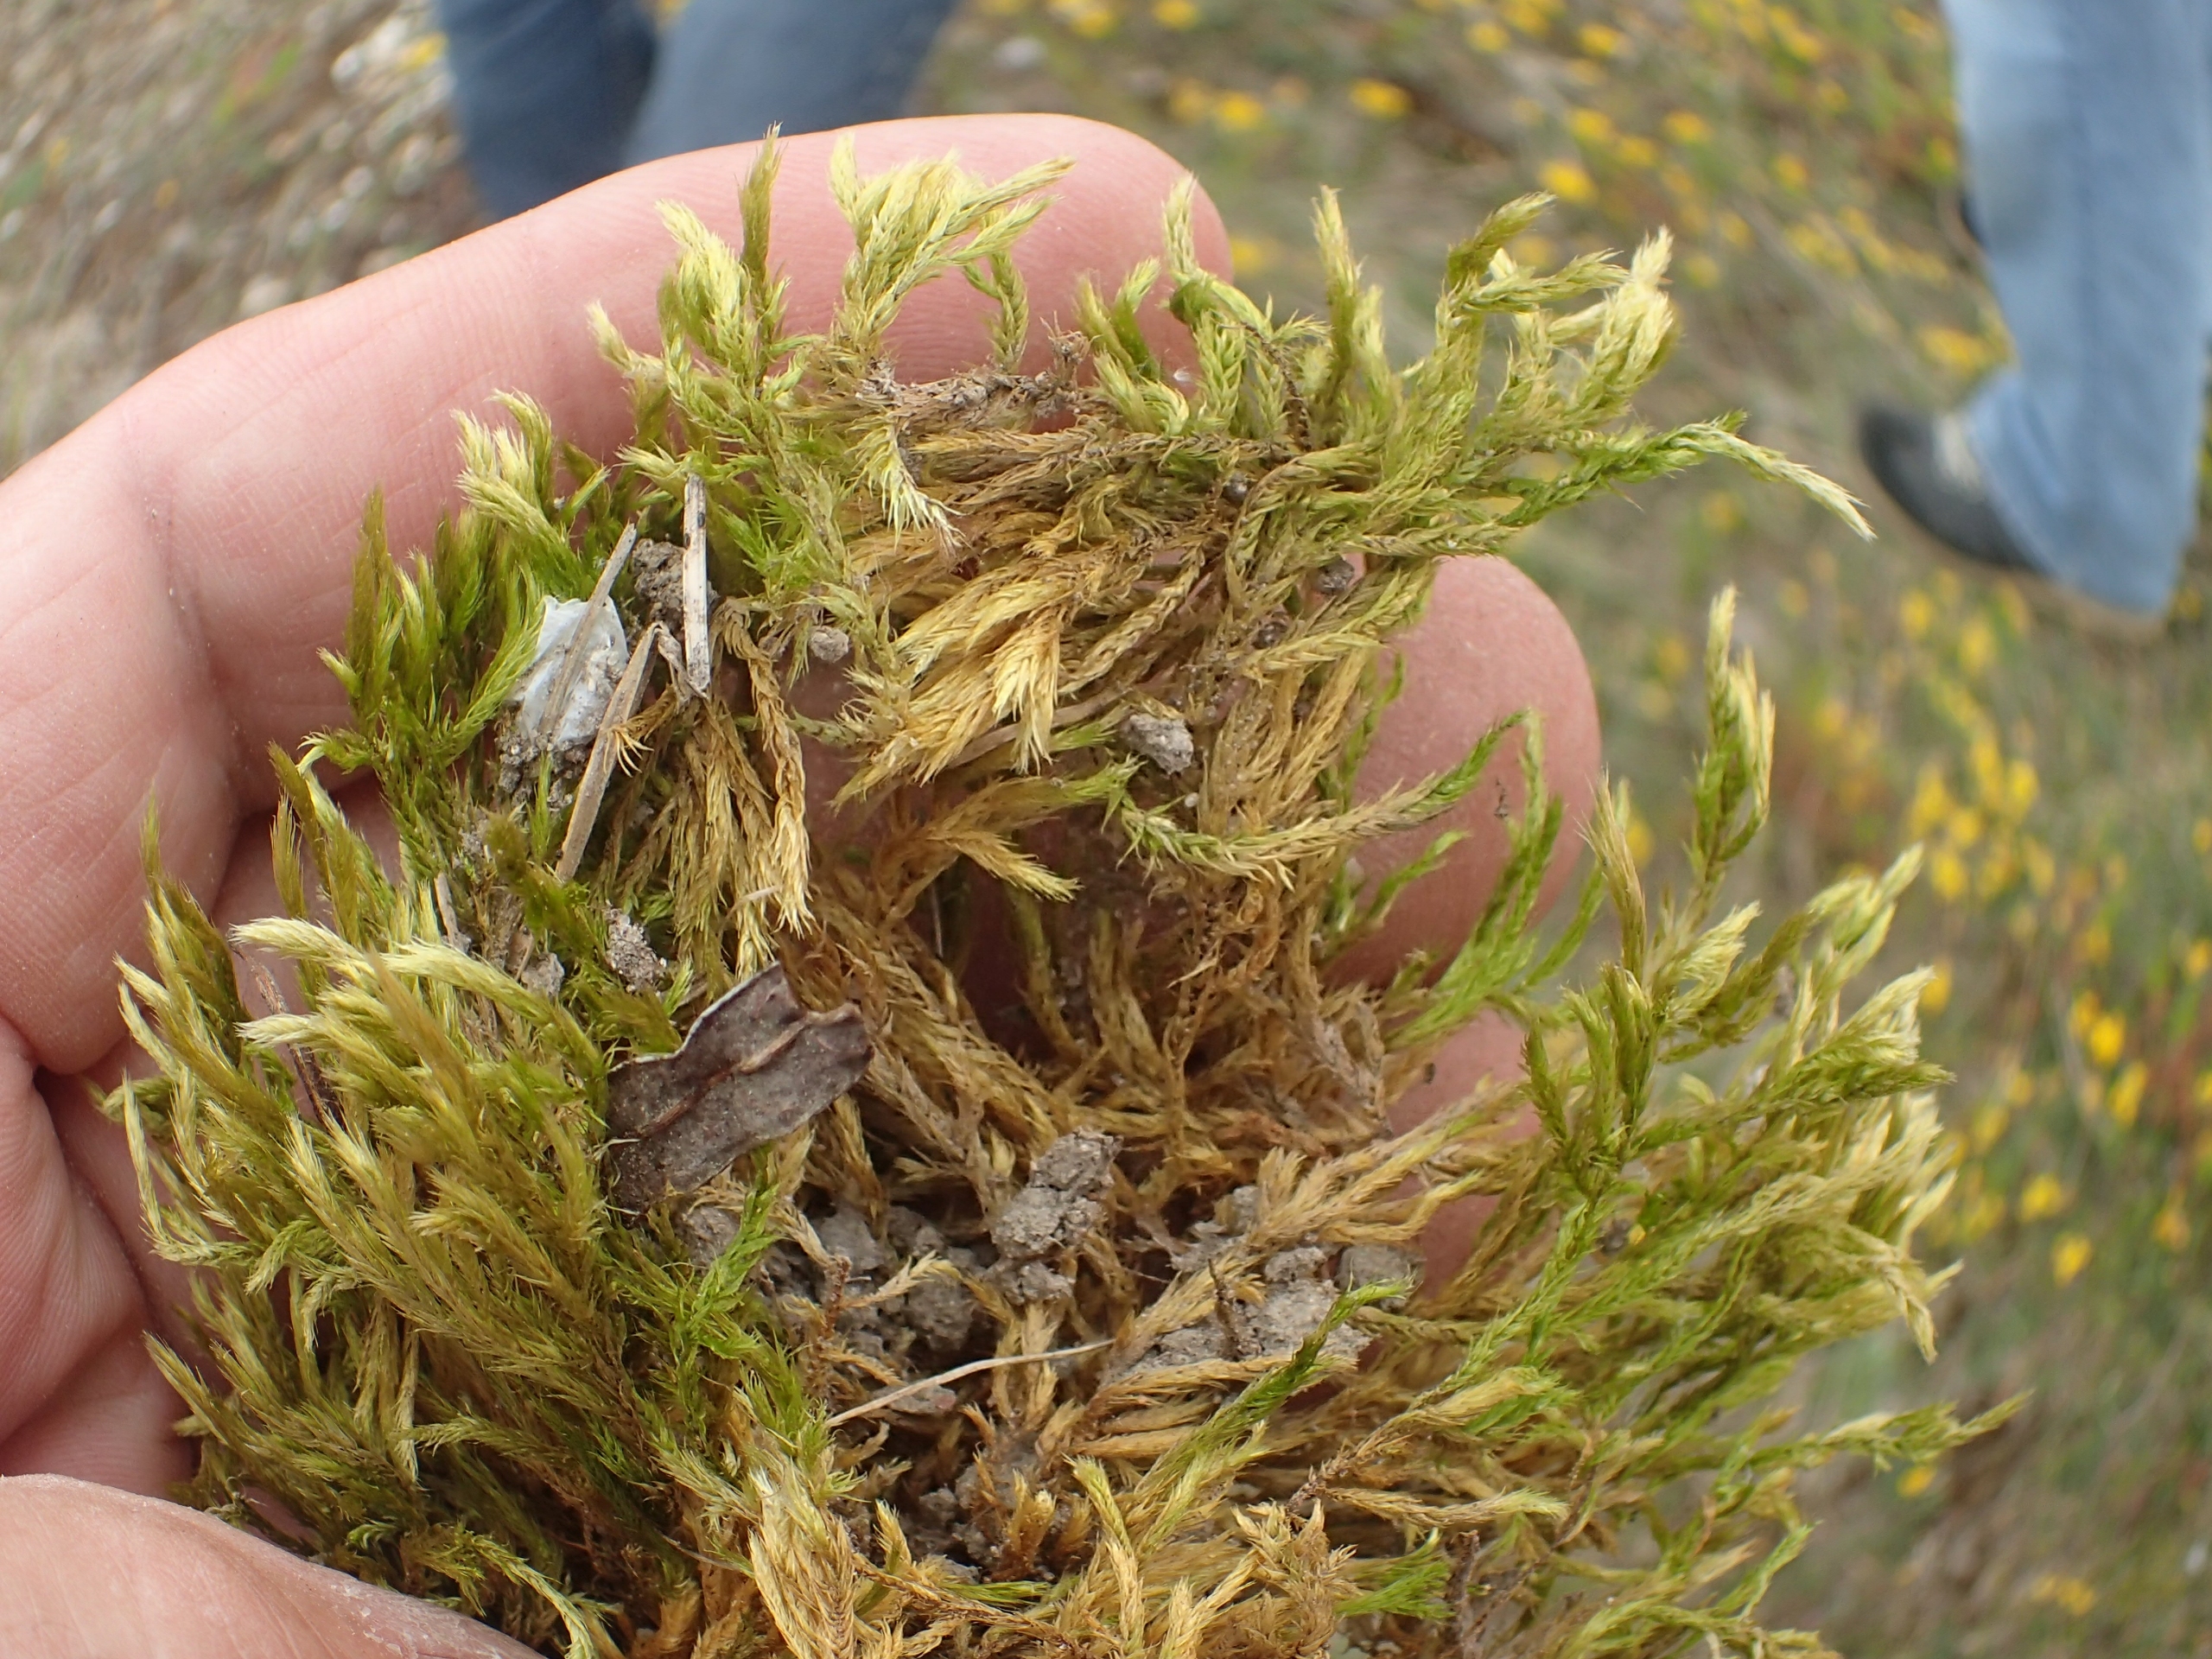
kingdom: Plantae
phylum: Bryophyta
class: Bryopsida
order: Hypnales
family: Brachytheciaceae
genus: Homalothecium
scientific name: Homalothecium lutescens
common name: Gul krumkapsel
